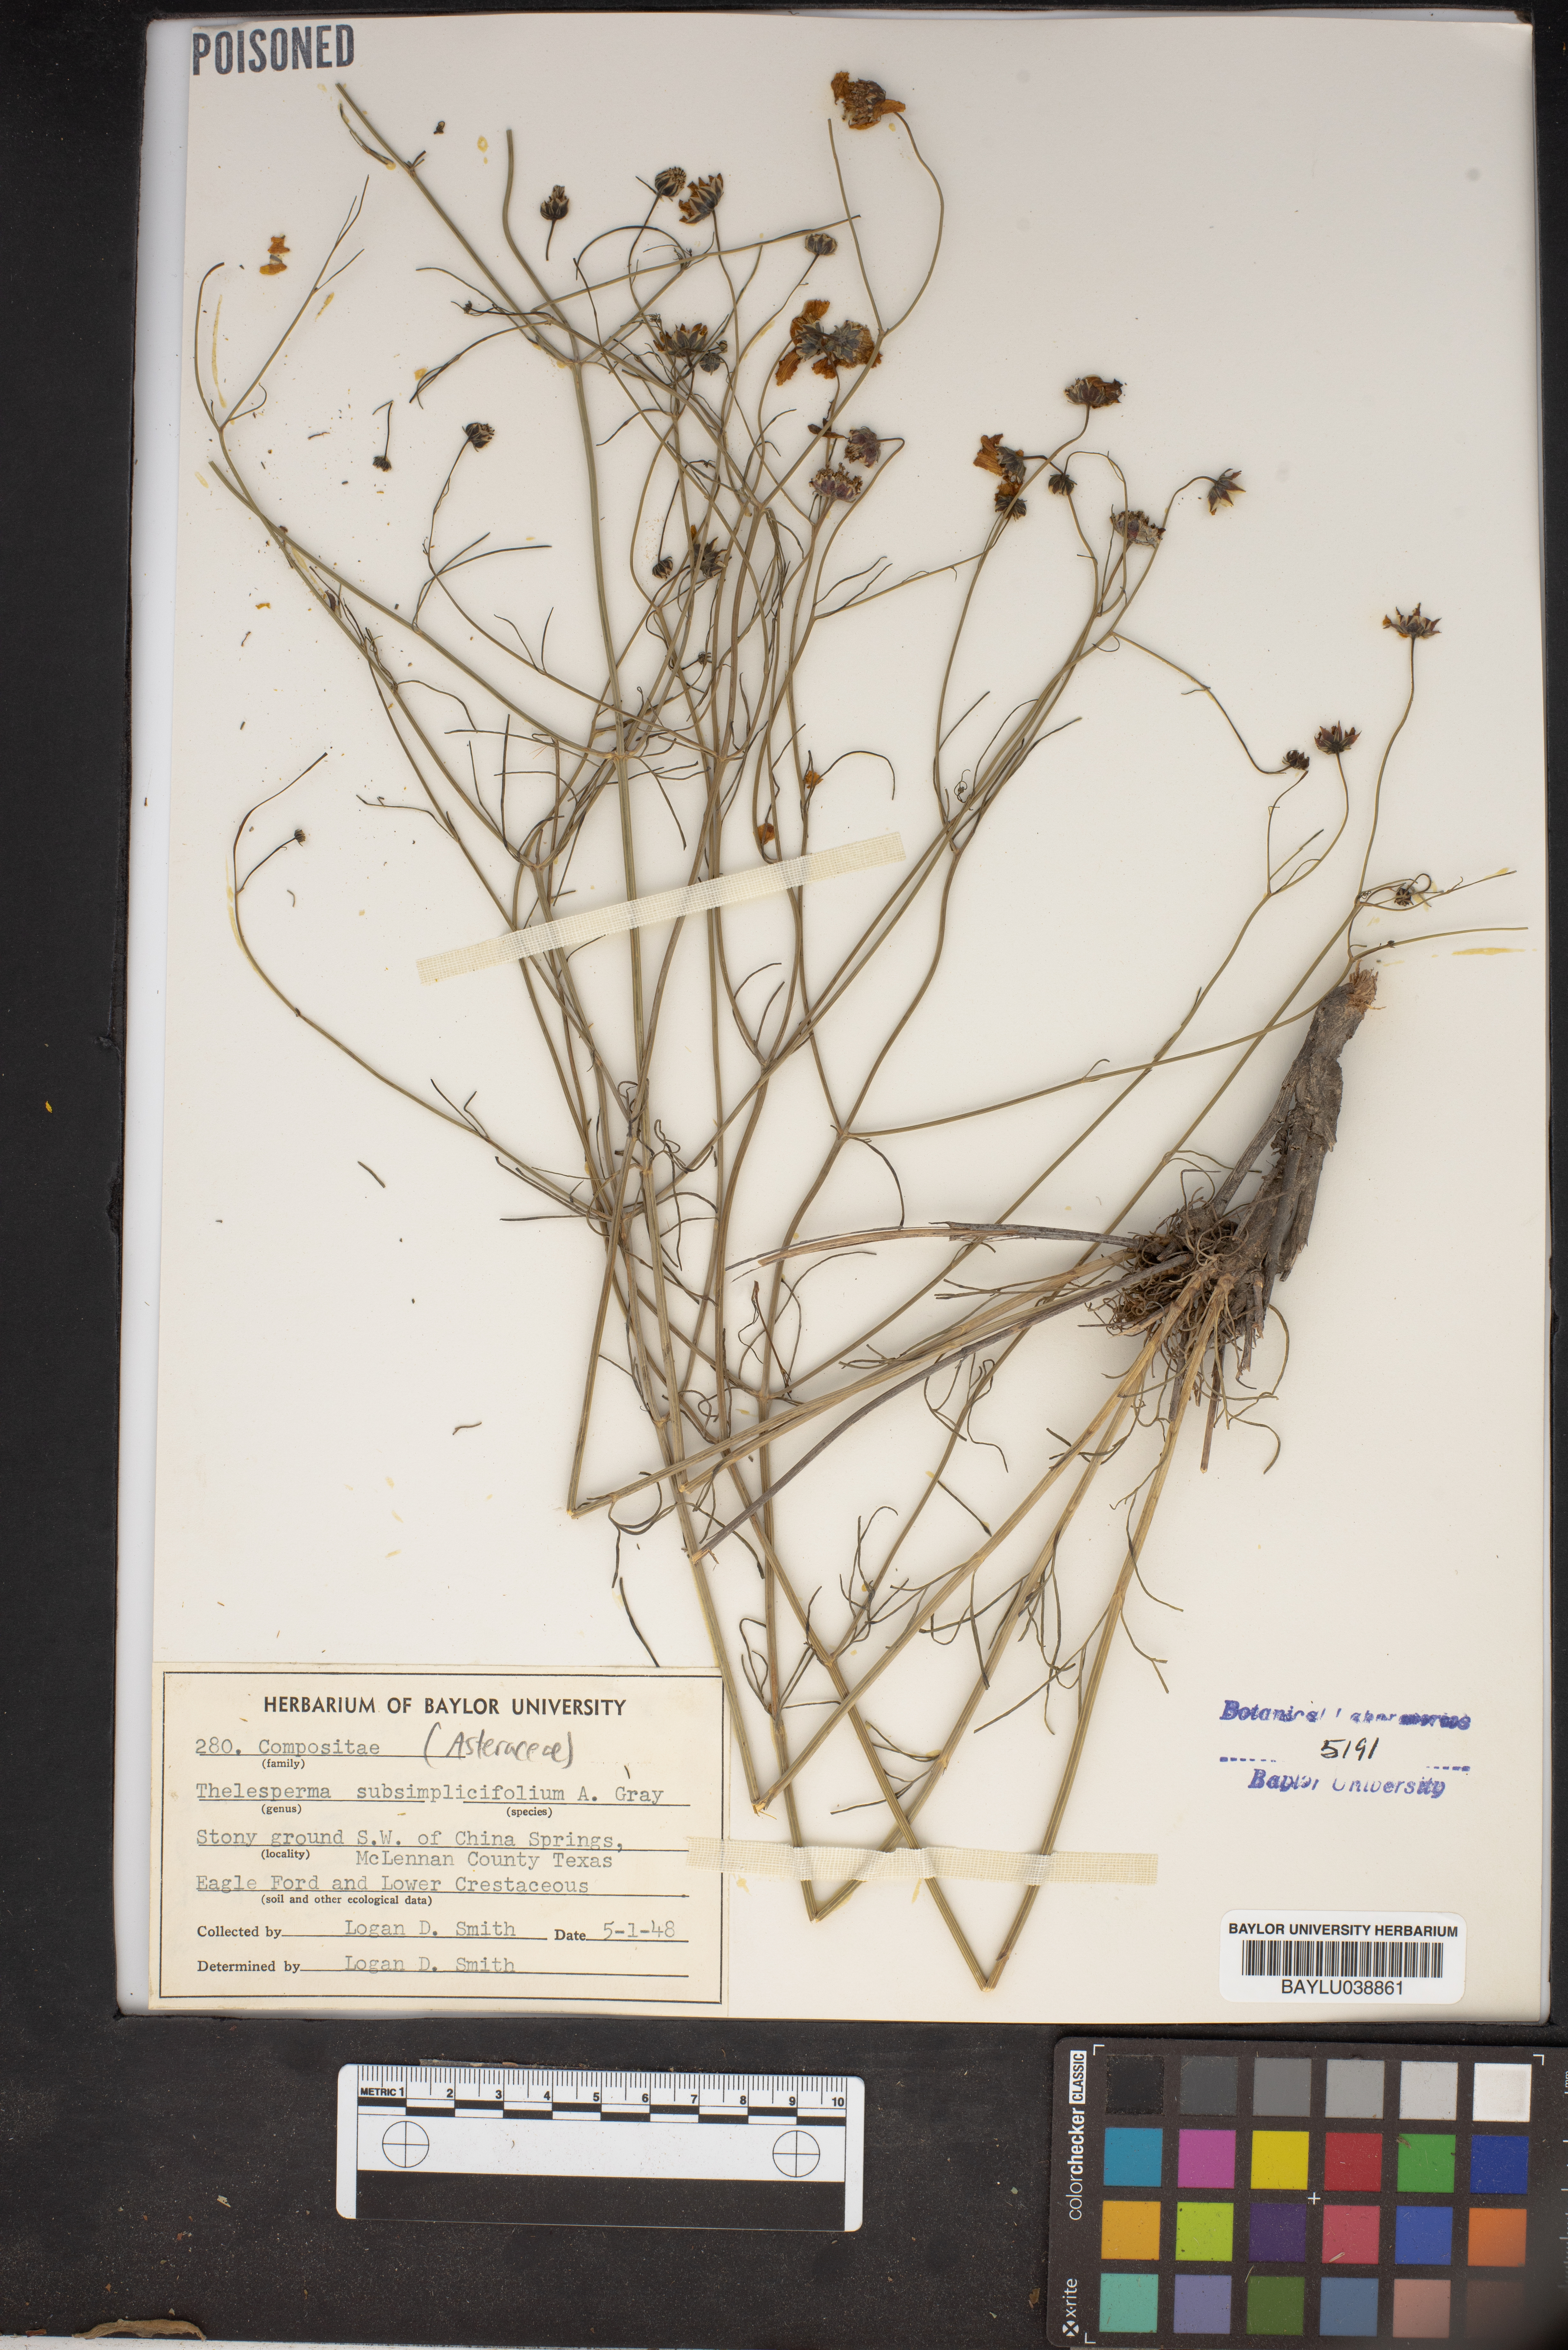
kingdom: Plantae
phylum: Tracheophyta
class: Magnoliopsida
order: Asterales
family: Asteraceae
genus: Thelesperma
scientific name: Thelesperma subsimplicifolium
